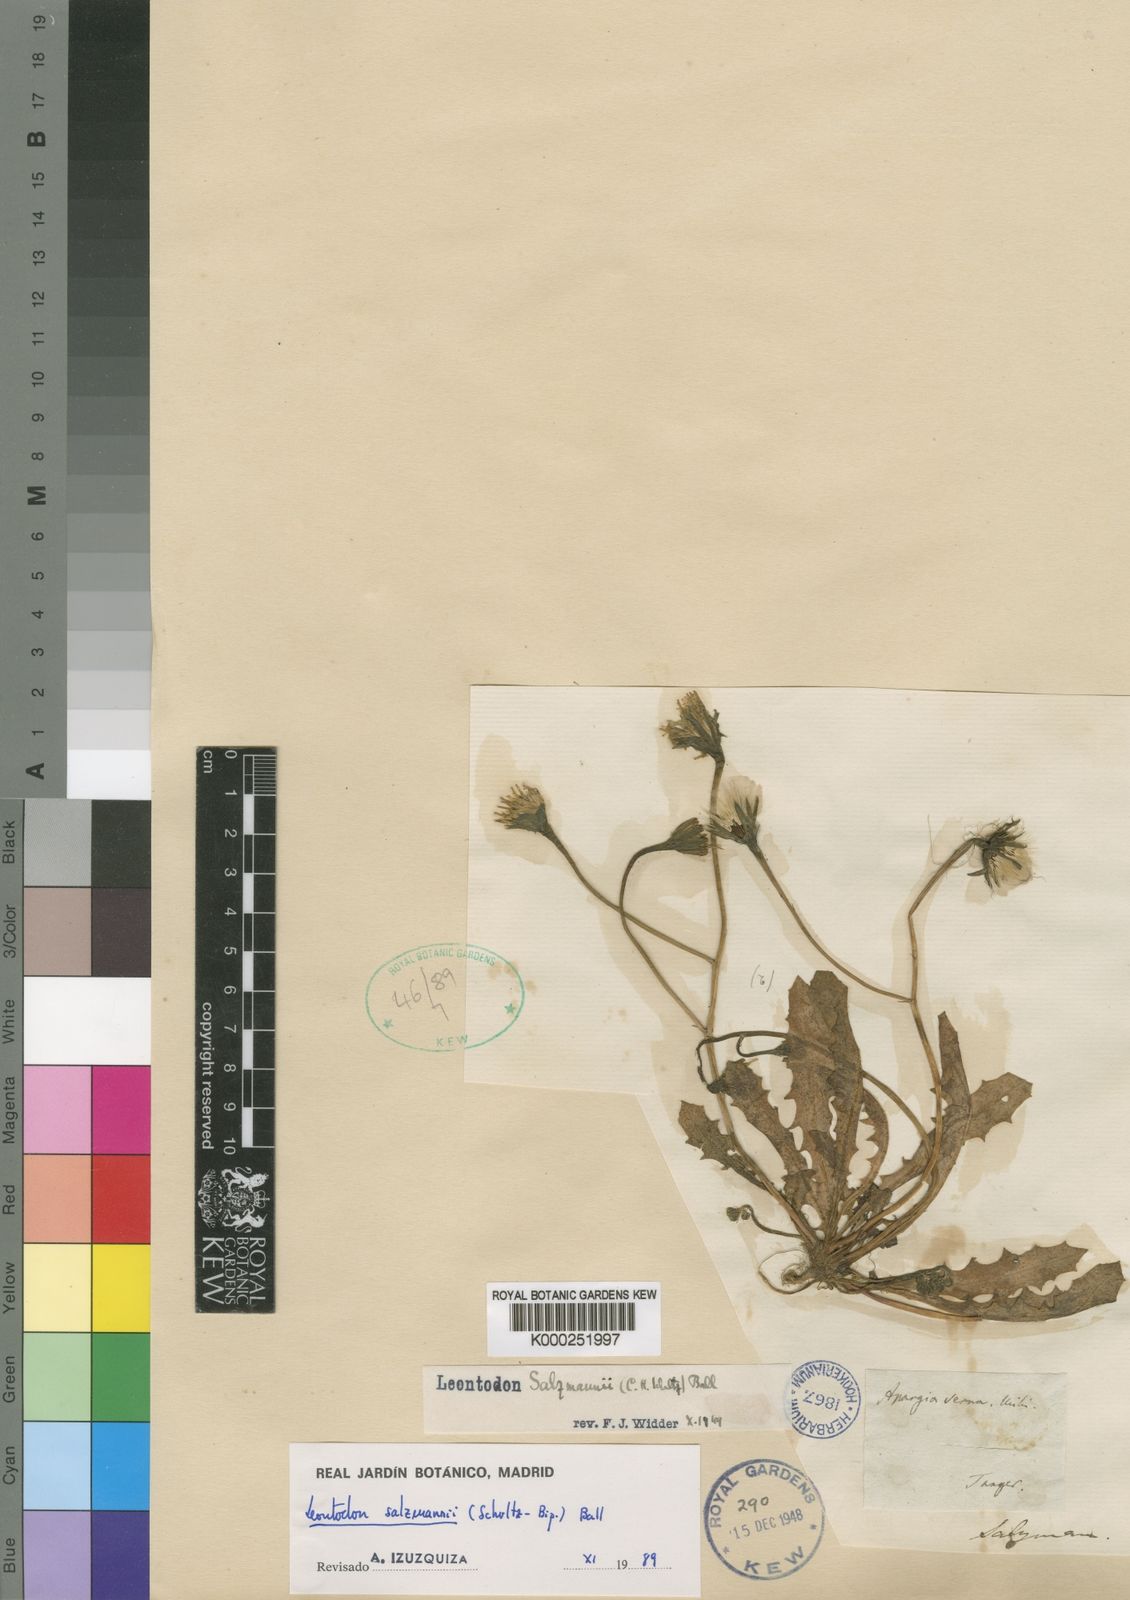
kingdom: Plantae
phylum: Tracheophyta
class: Magnoliopsida
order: Asterales
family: Asteraceae
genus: Scorzoneroides
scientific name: Scorzoneroides salzmannii
